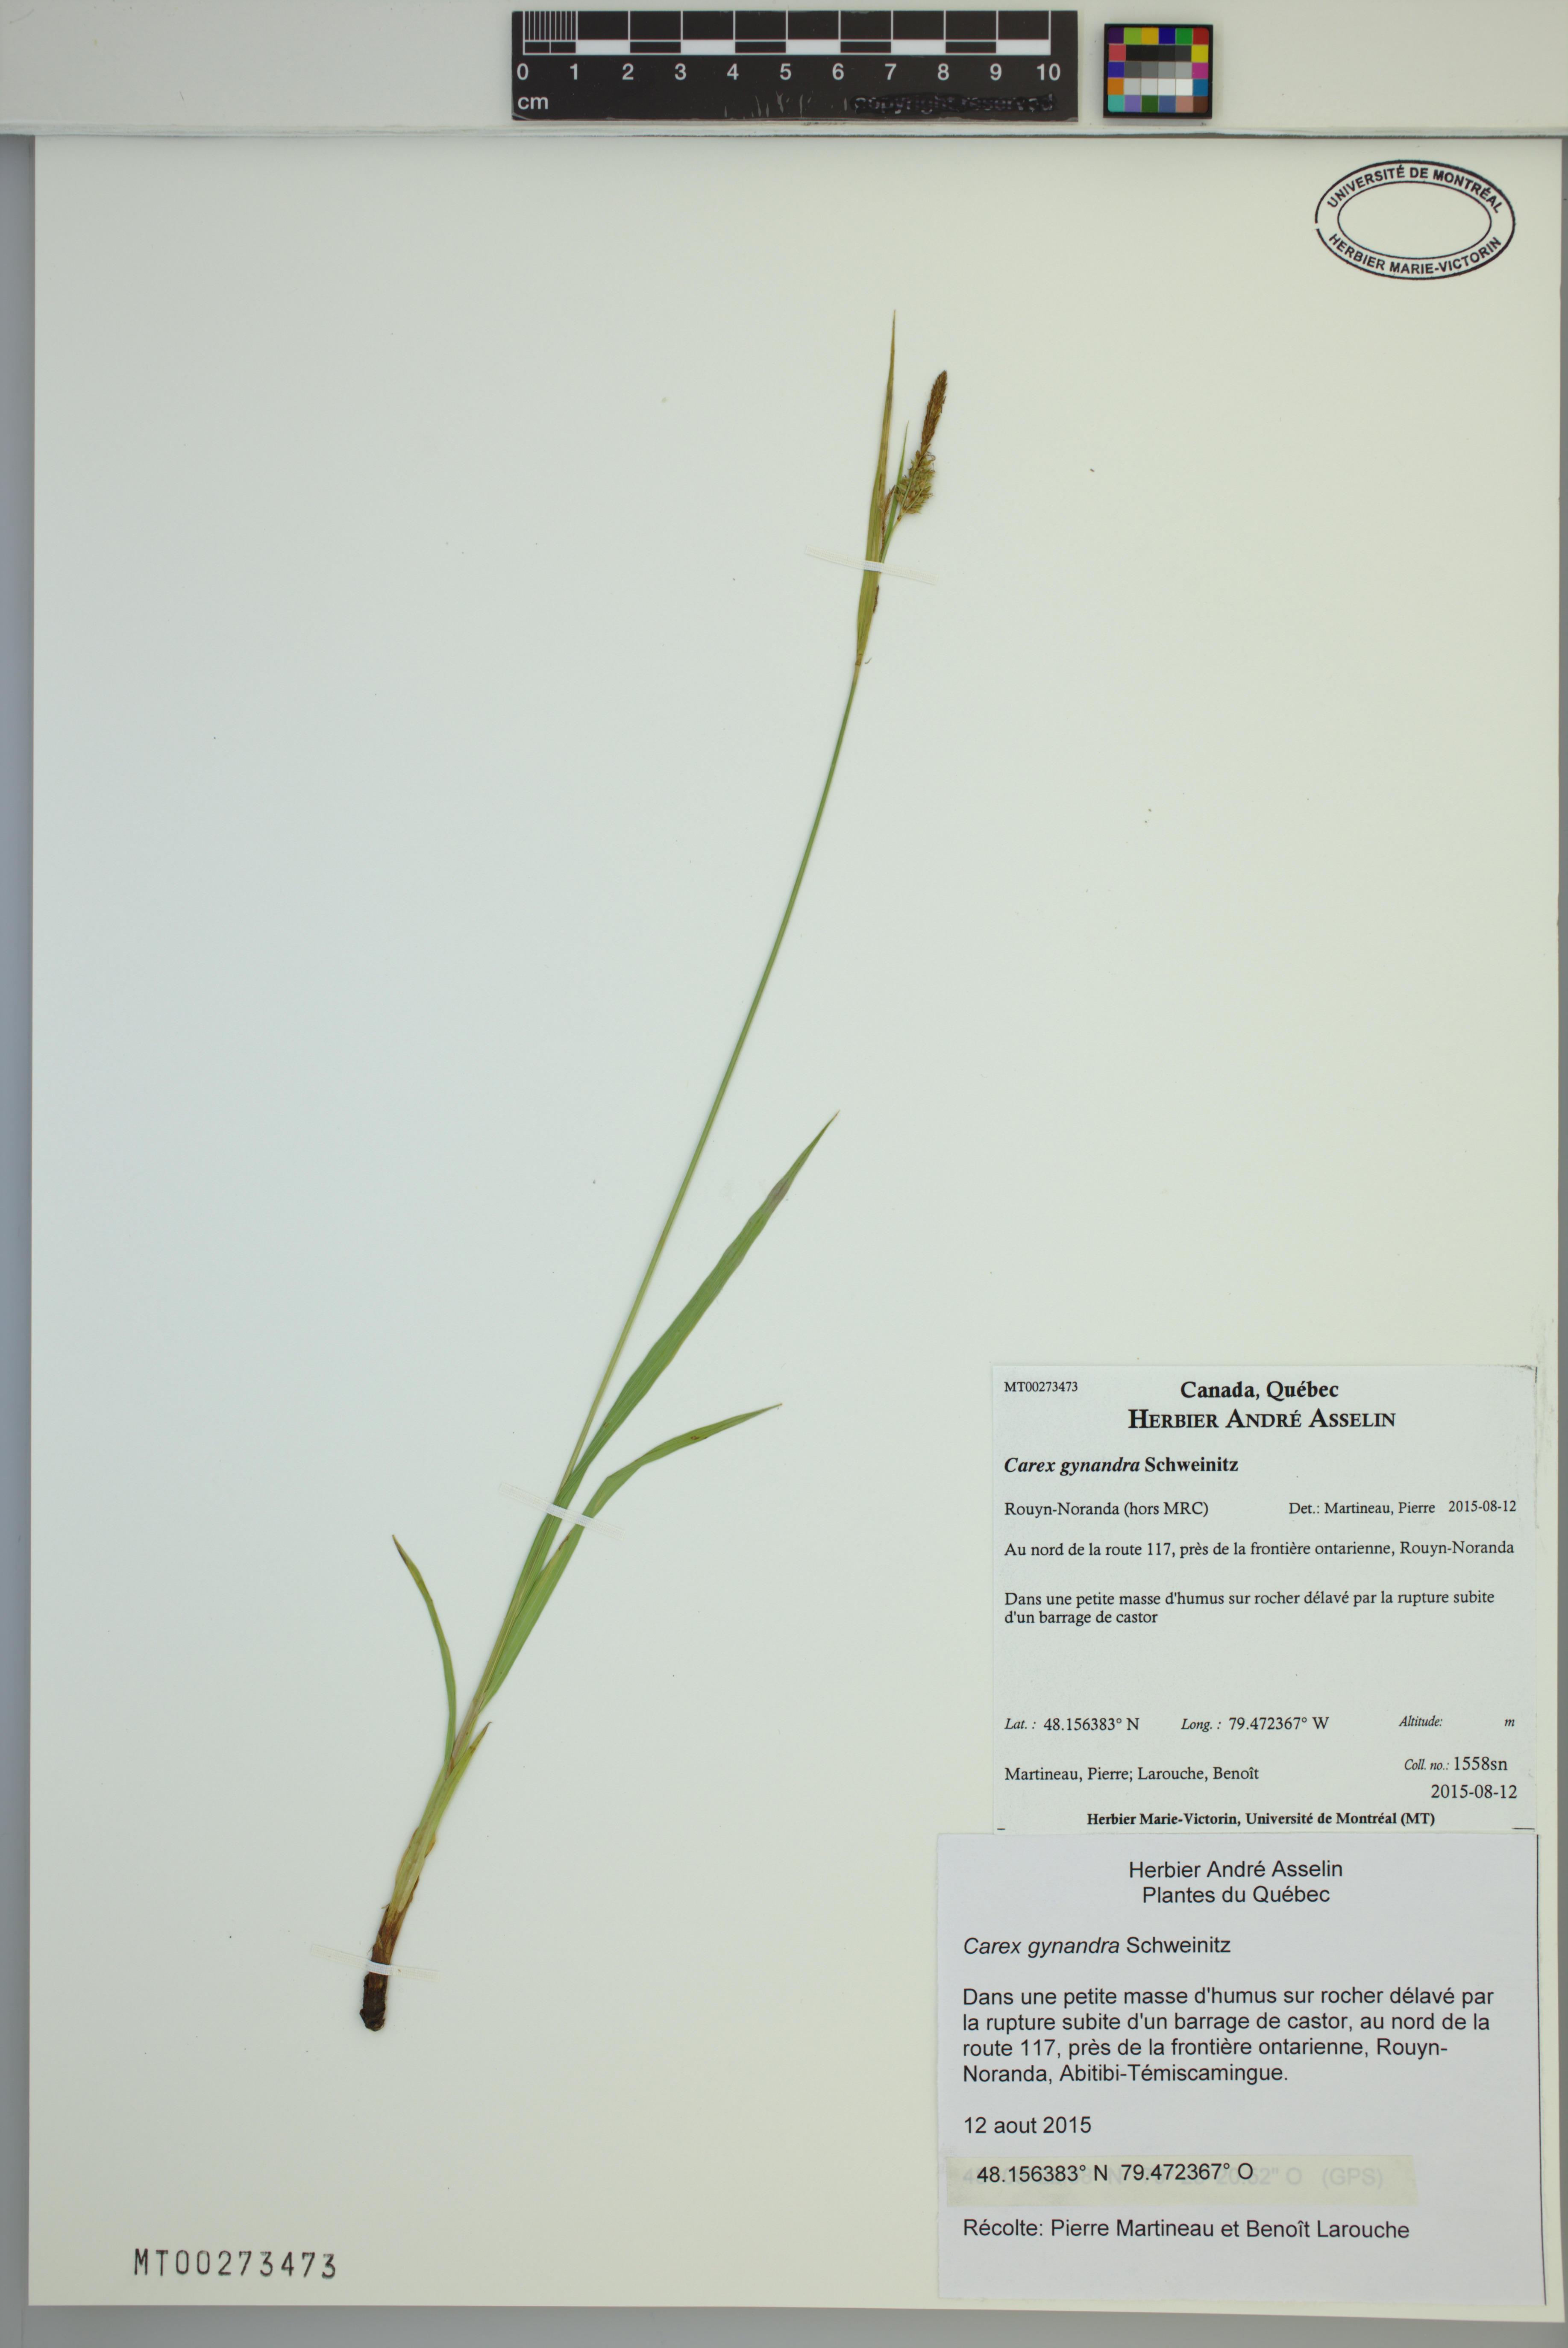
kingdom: Plantae
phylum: Tracheophyta
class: Liliopsida
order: Poales
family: Cyperaceae
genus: Carex
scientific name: Carex gynandra
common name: Nodding sedge
